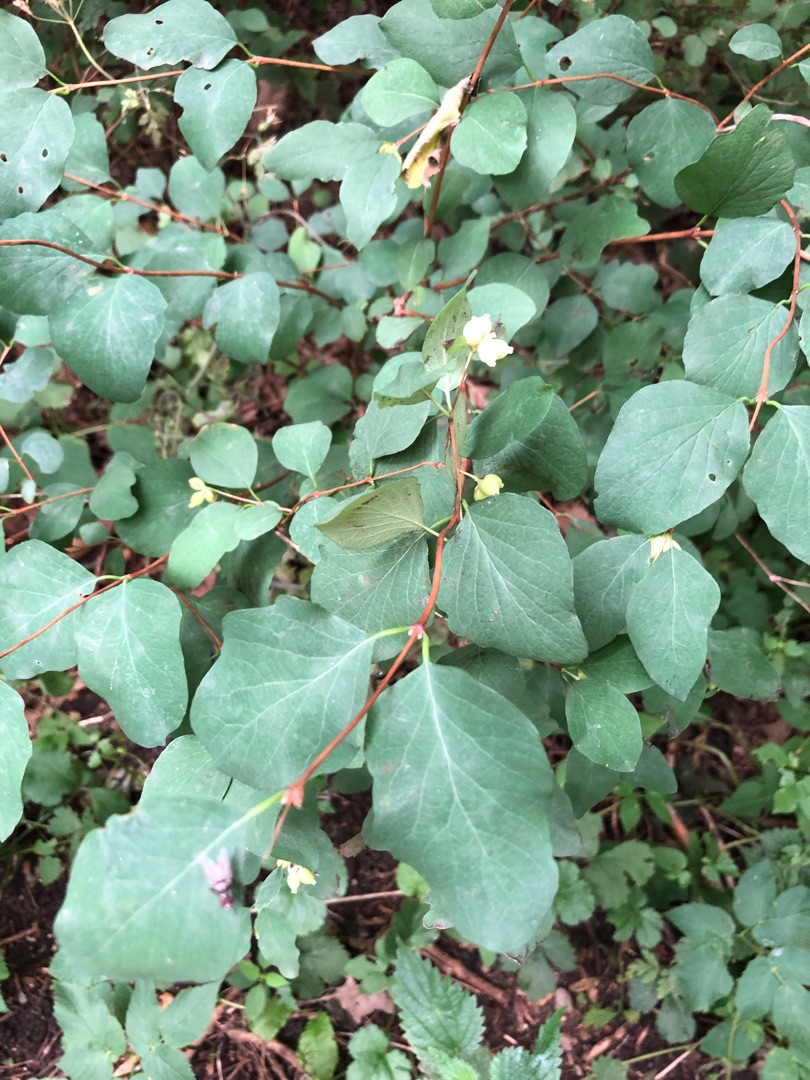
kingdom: Plantae
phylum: Tracheophyta
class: Magnoliopsida
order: Dipsacales
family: Caprifoliaceae
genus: Symphoricarpos
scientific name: Symphoricarpos albus
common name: Almindelig snebær
